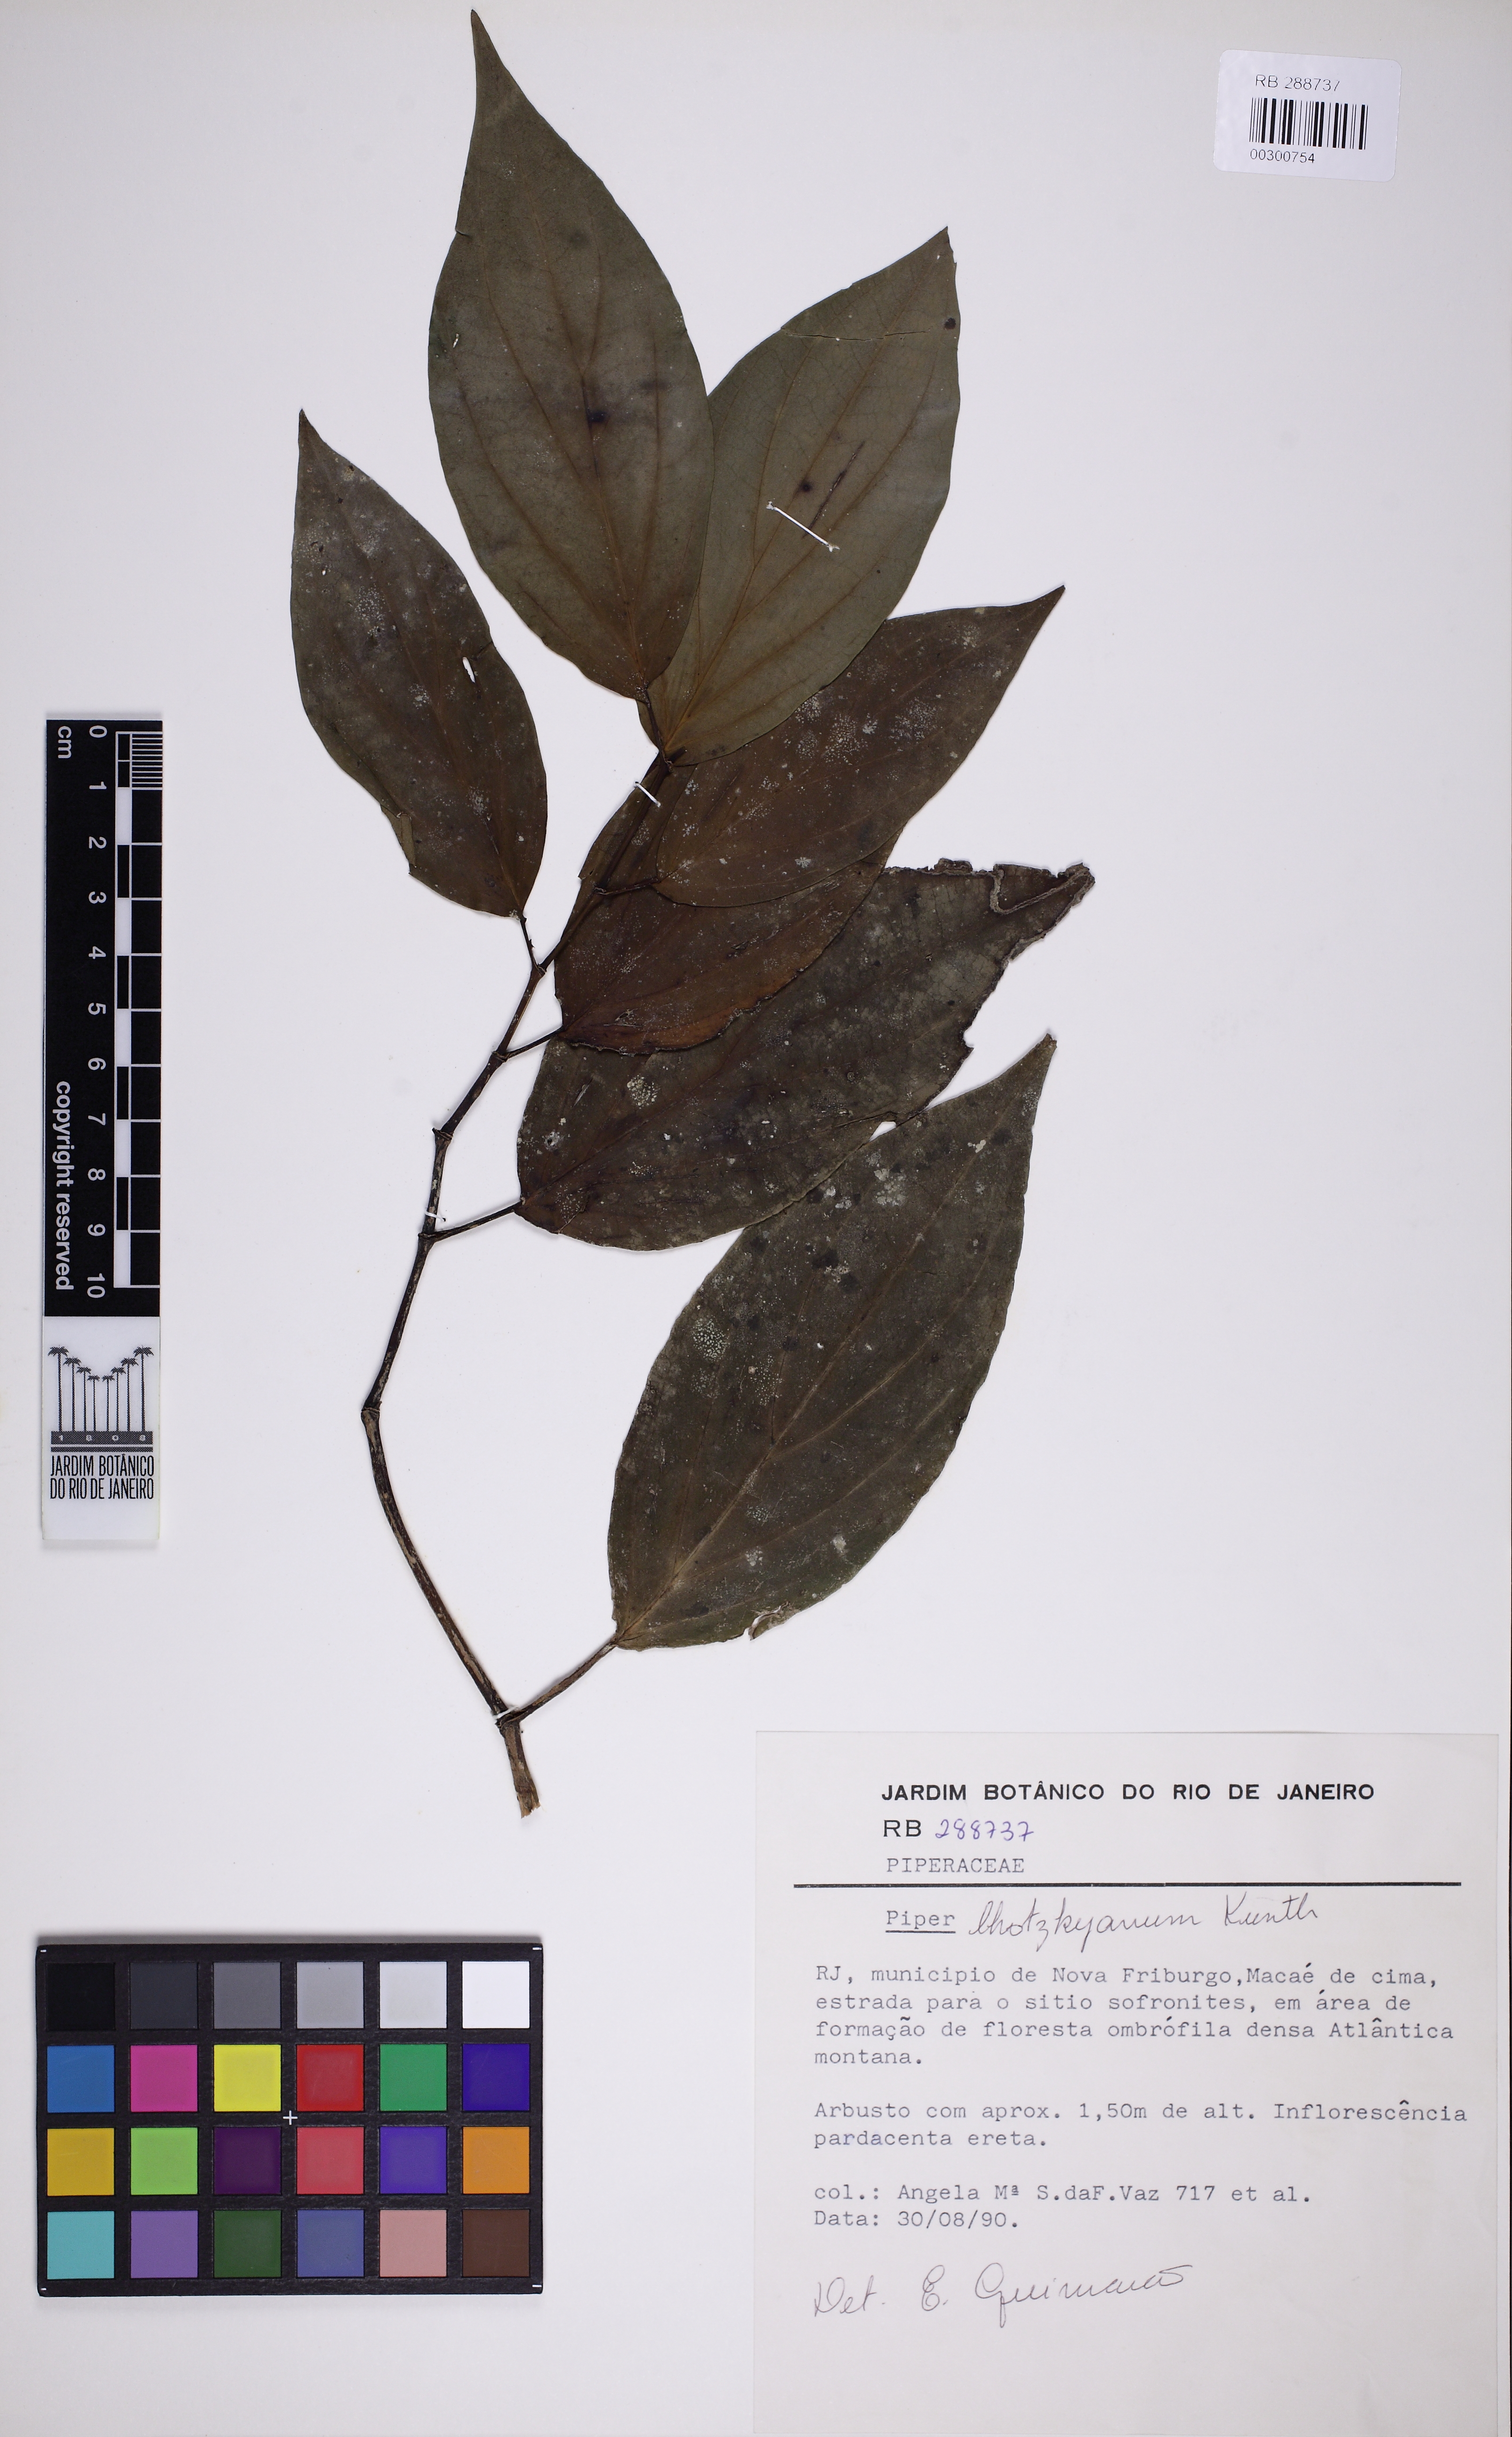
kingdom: Plantae
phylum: Tracheophyta
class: Magnoliopsida
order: Piperales
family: Piperaceae
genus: Piper
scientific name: Piper lhotzkyanum
